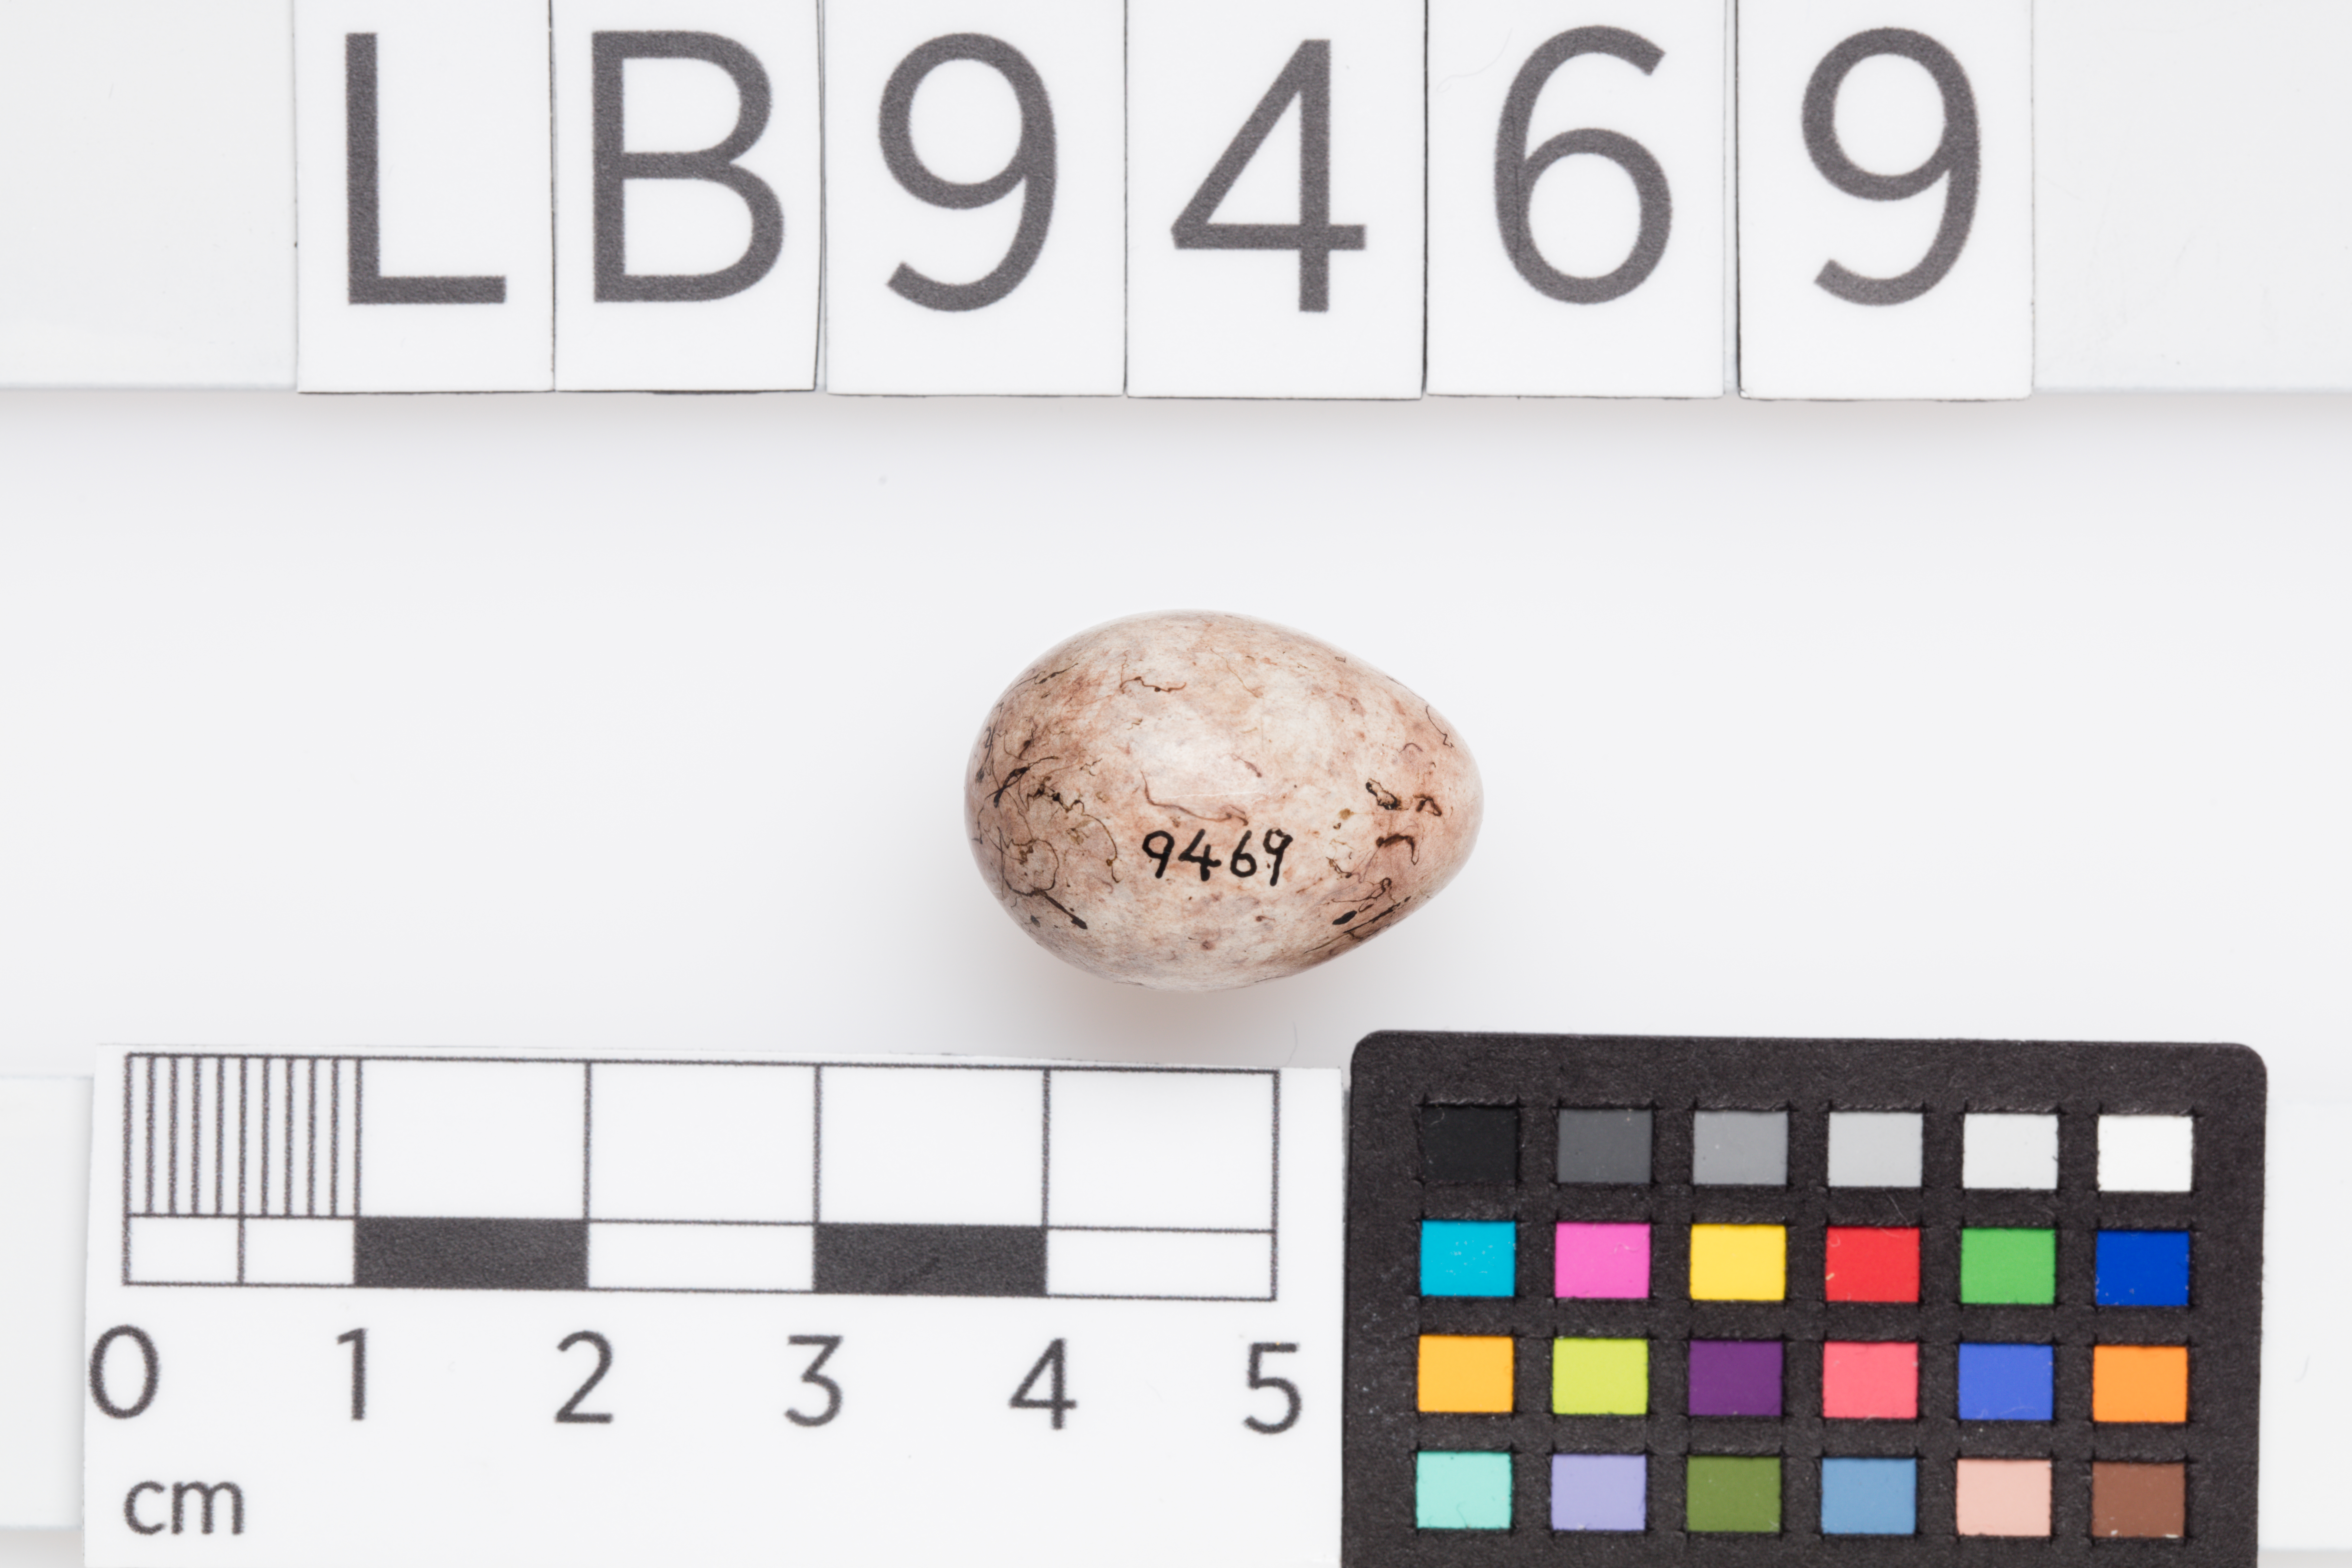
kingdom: Animalia
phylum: Chordata
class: Aves
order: Passeriformes
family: Emberizidae
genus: Emberiza
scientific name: Emberiza citrinella
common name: Yellowhammer
